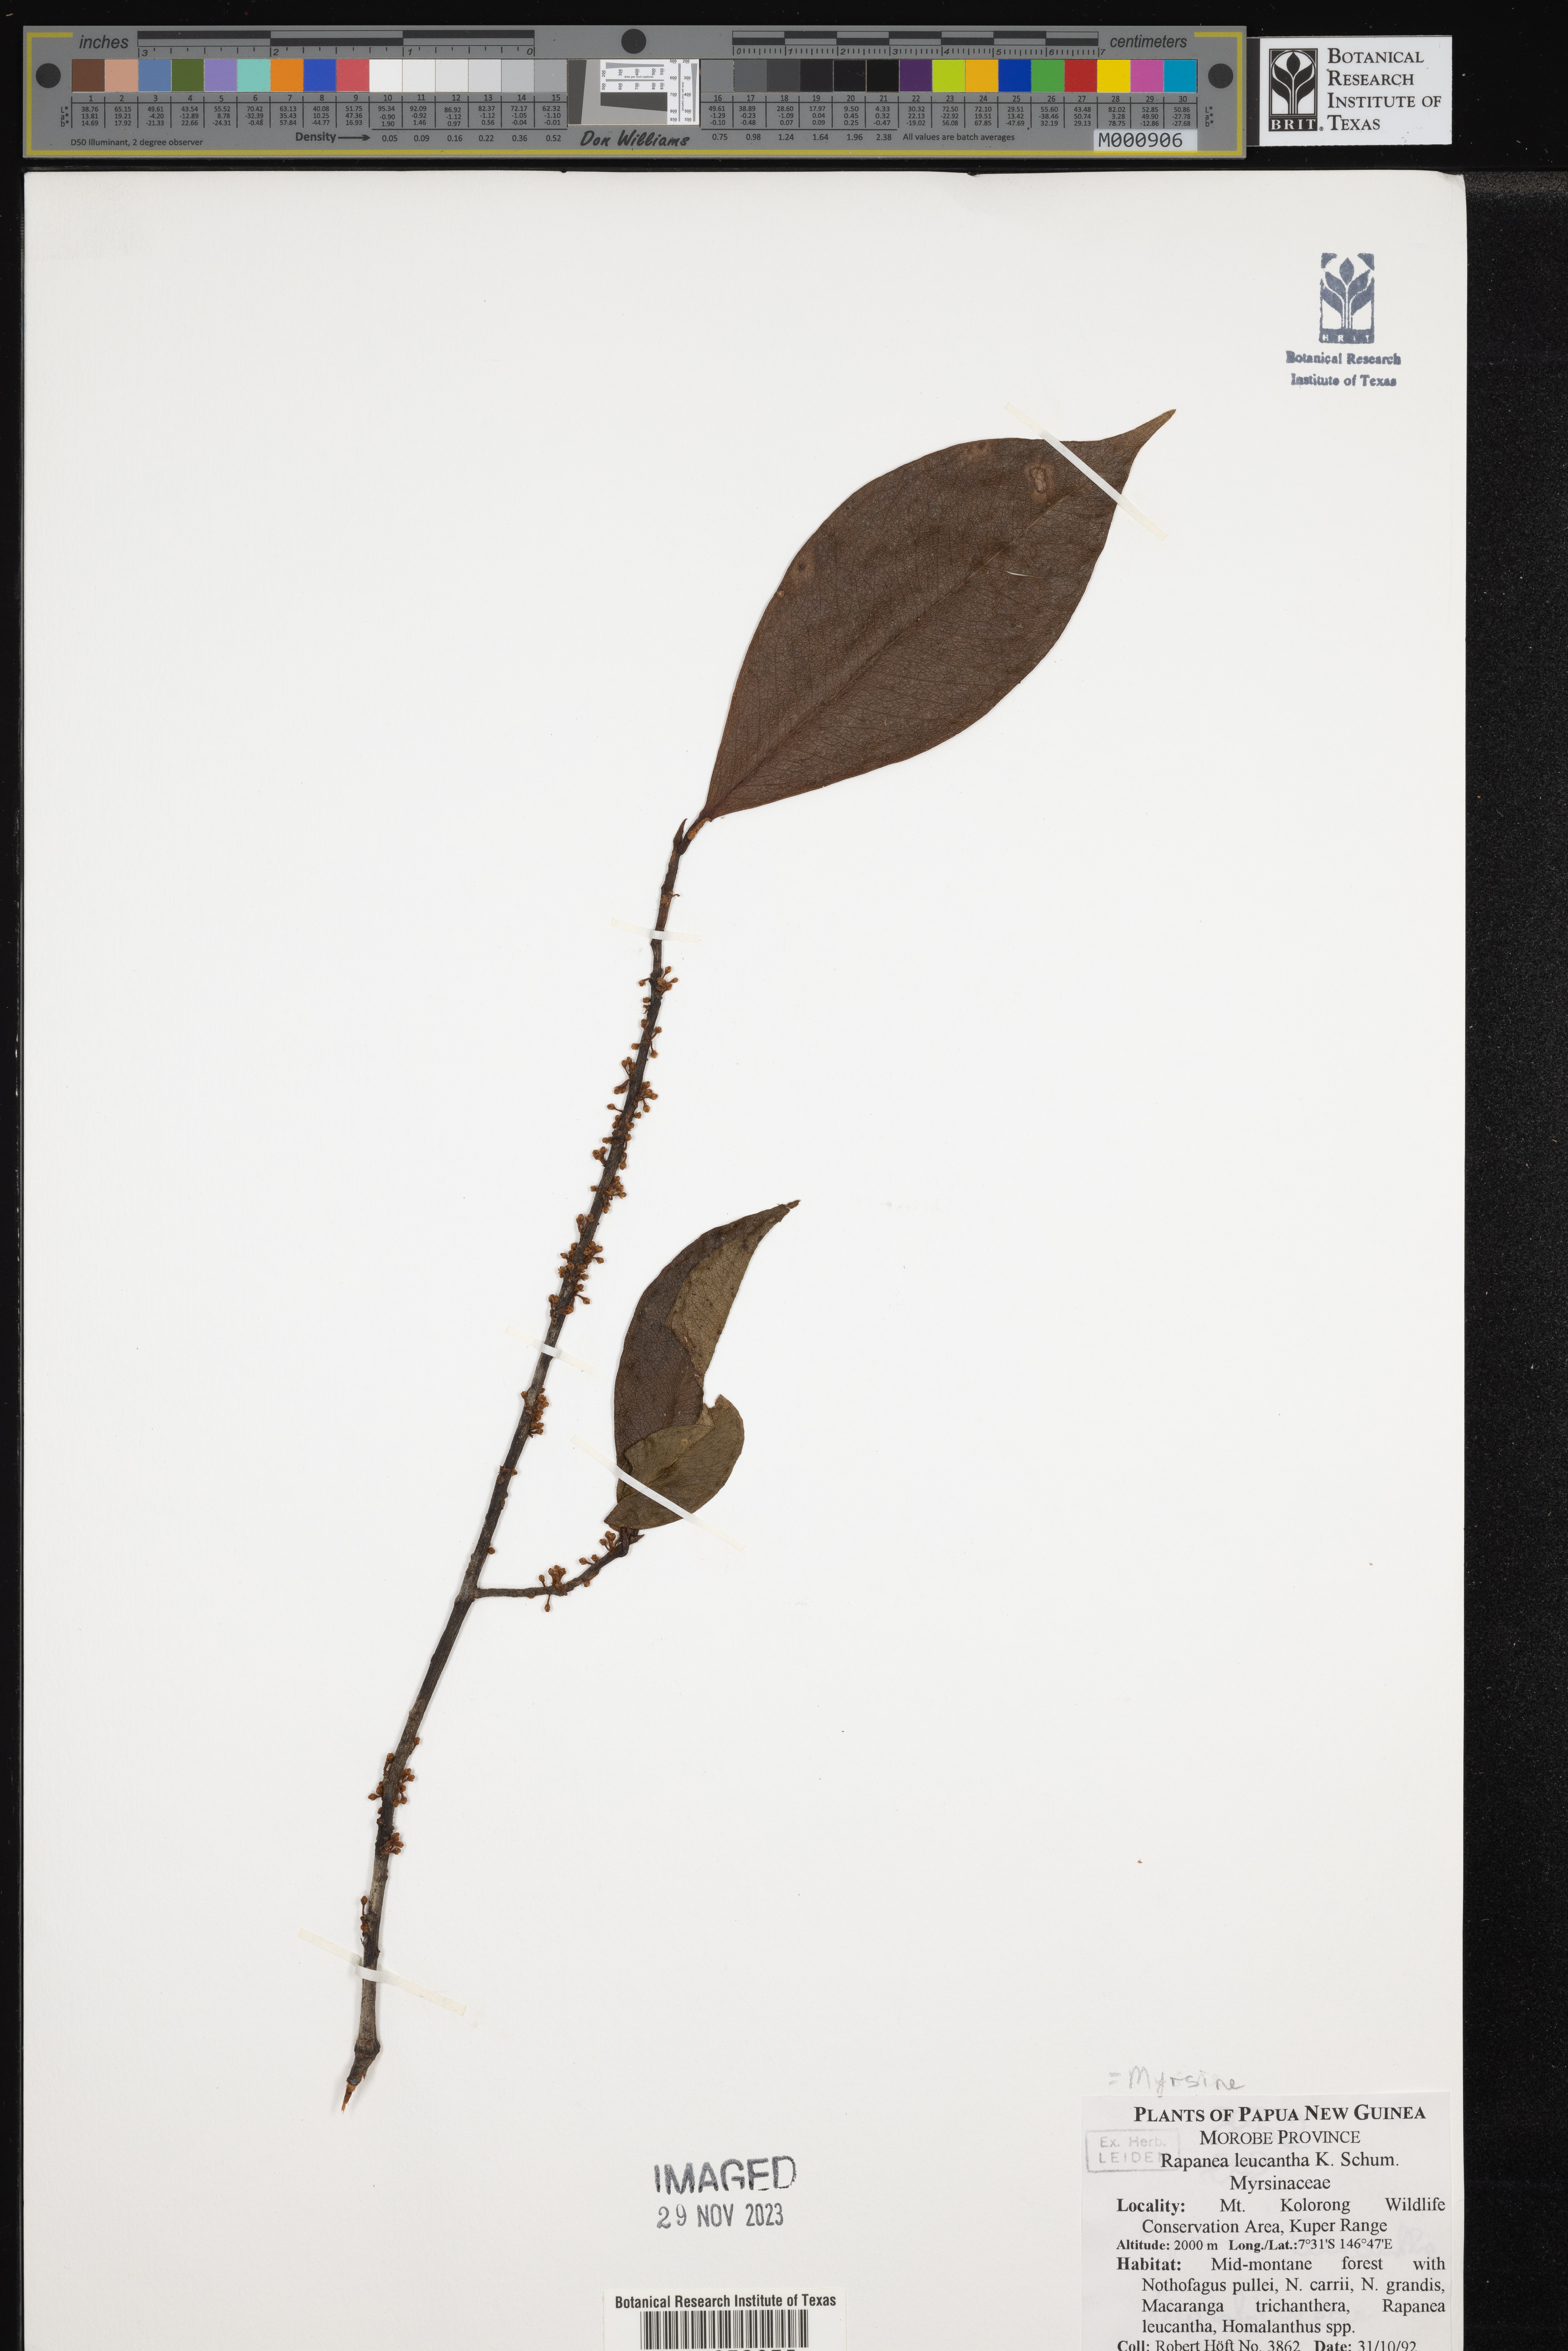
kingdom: Plantae
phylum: Tracheophyta
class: Magnoliopsida
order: Ericales
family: Primulaceae
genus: Myrsine
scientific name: Myrsine
